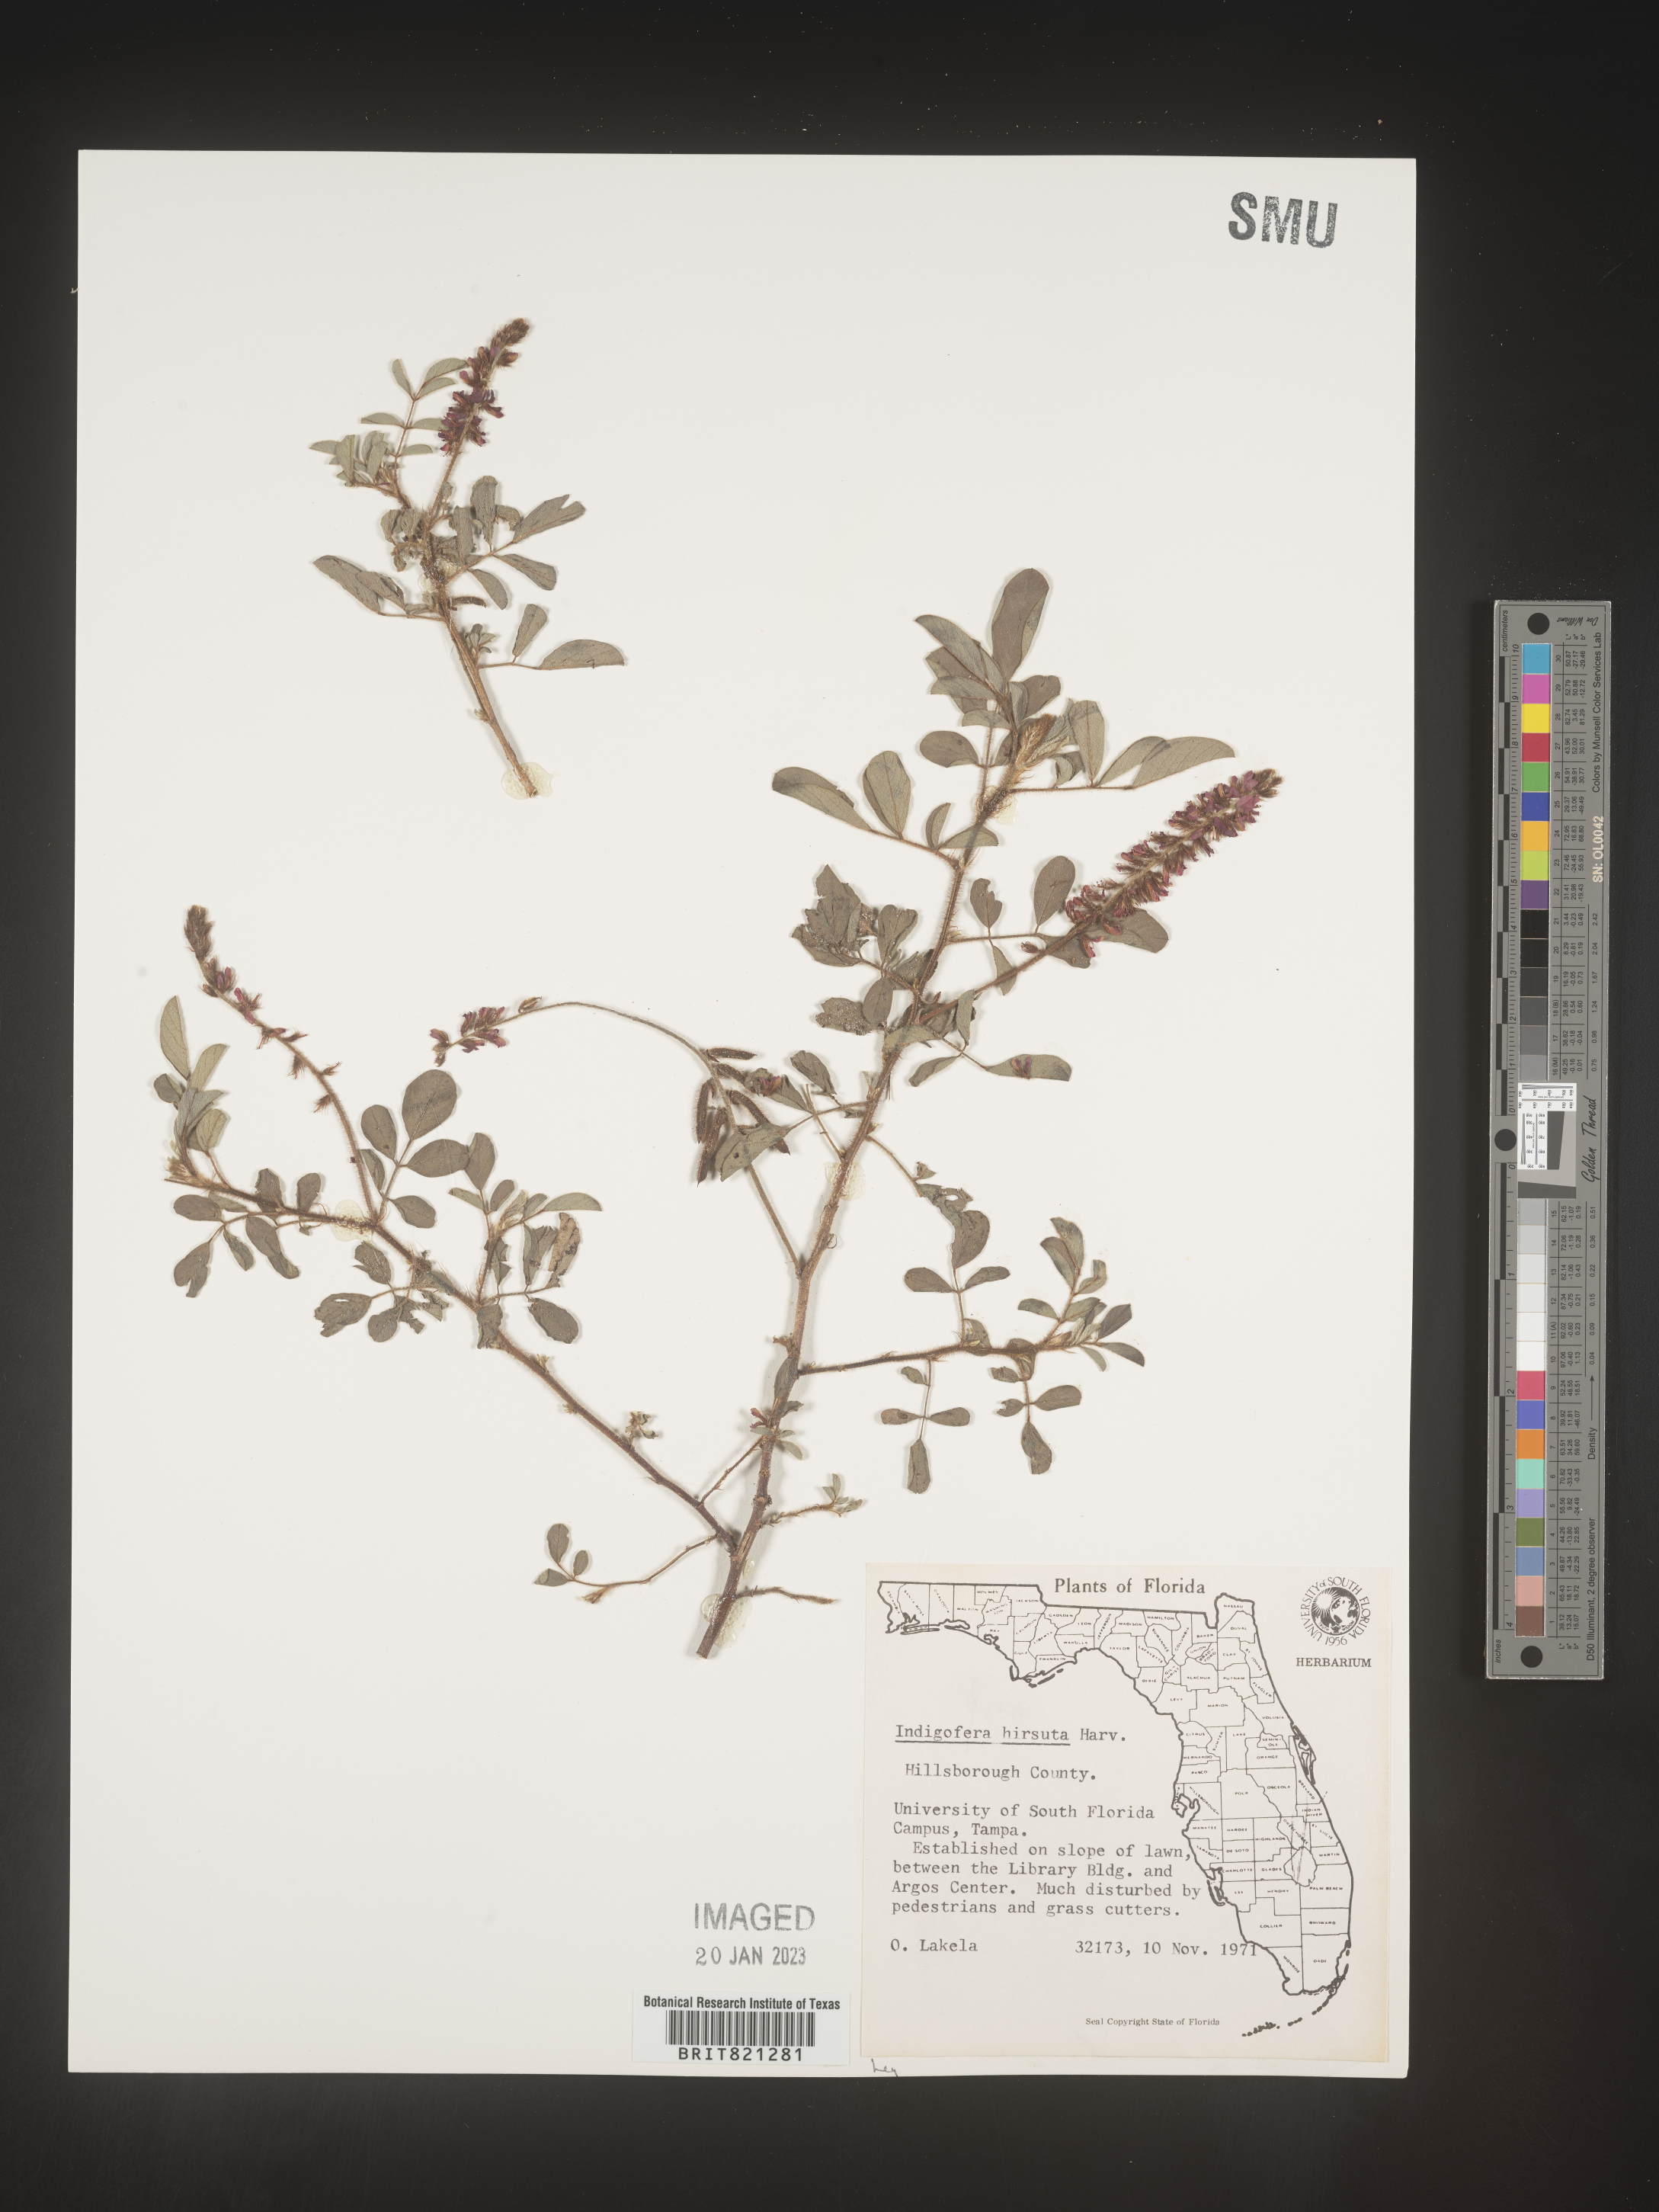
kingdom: Plantae
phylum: Tracheophyta
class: Magnoliopsida
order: Fabales
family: Fabaceae
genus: Indigofera
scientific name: Indigofera
